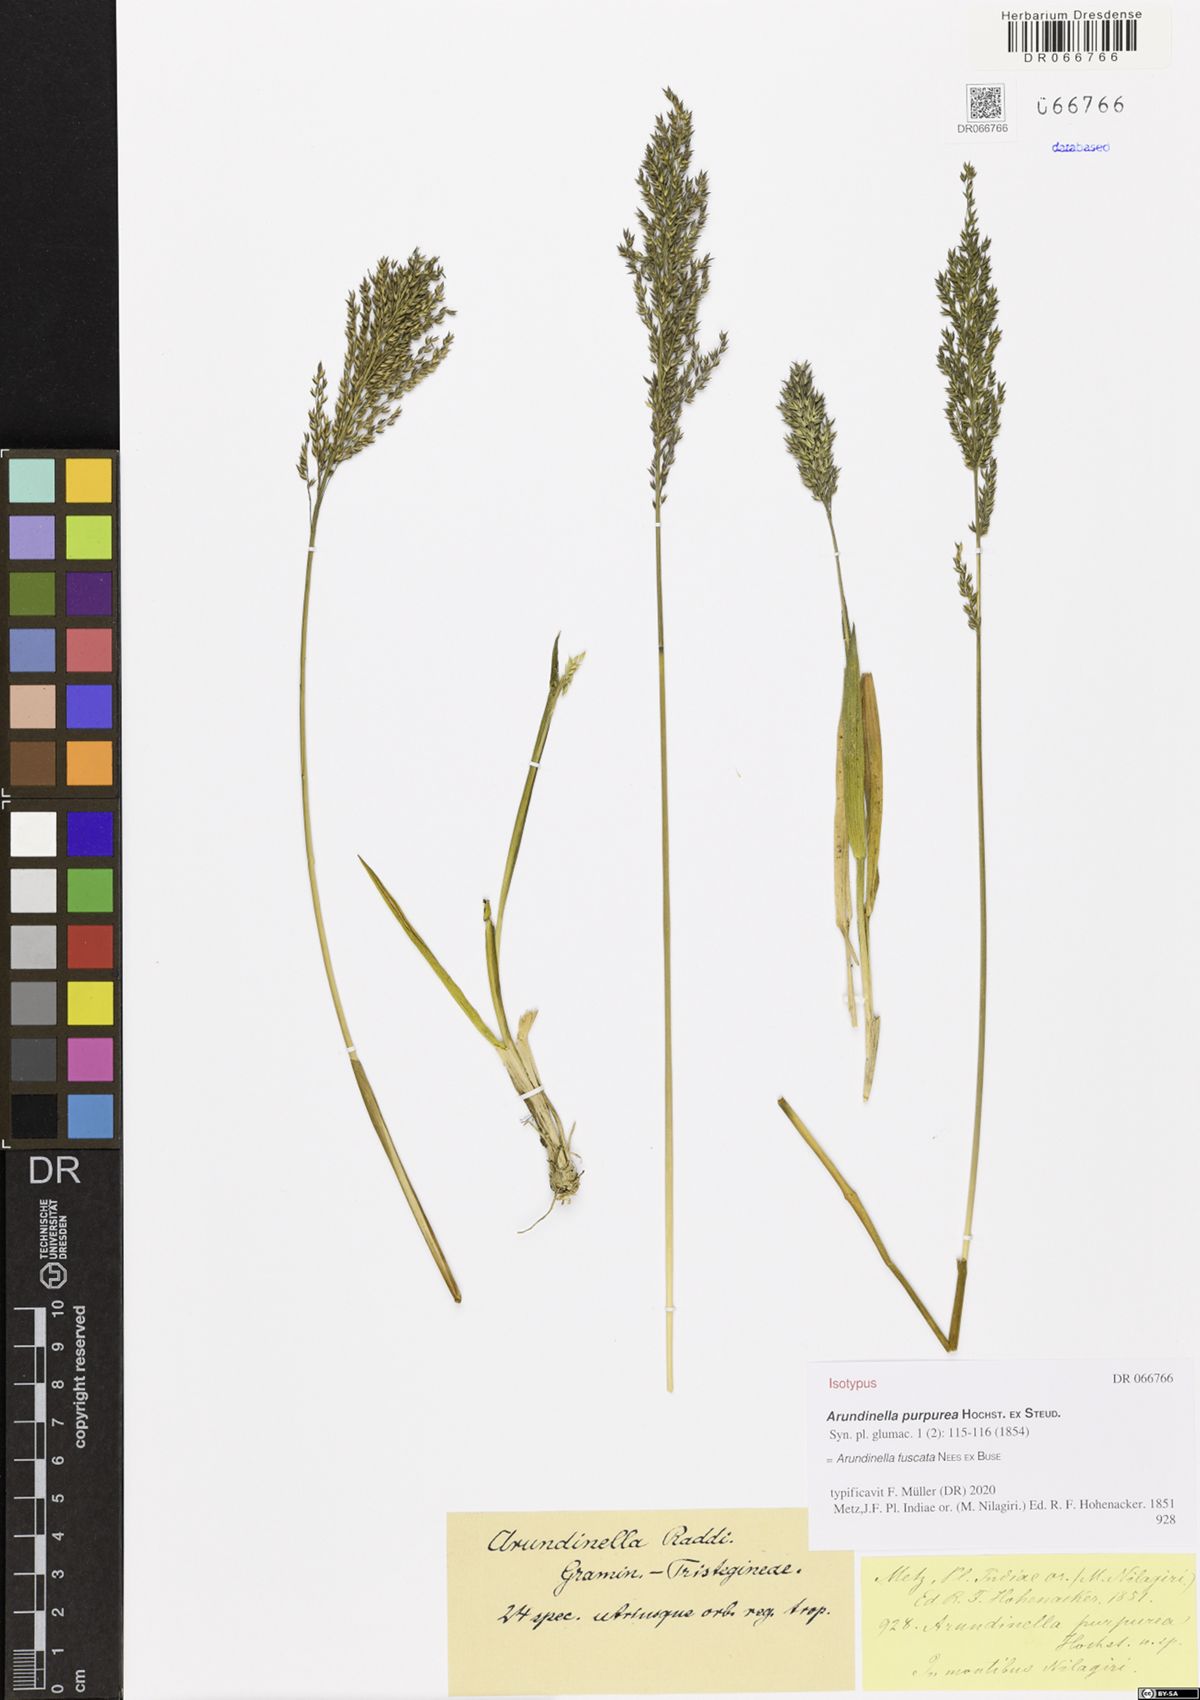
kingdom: Plantae
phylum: Tracheophyta
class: Liliopsida
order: Poales
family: Poaceae
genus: Arundinella
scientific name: Arundinella fuscata
